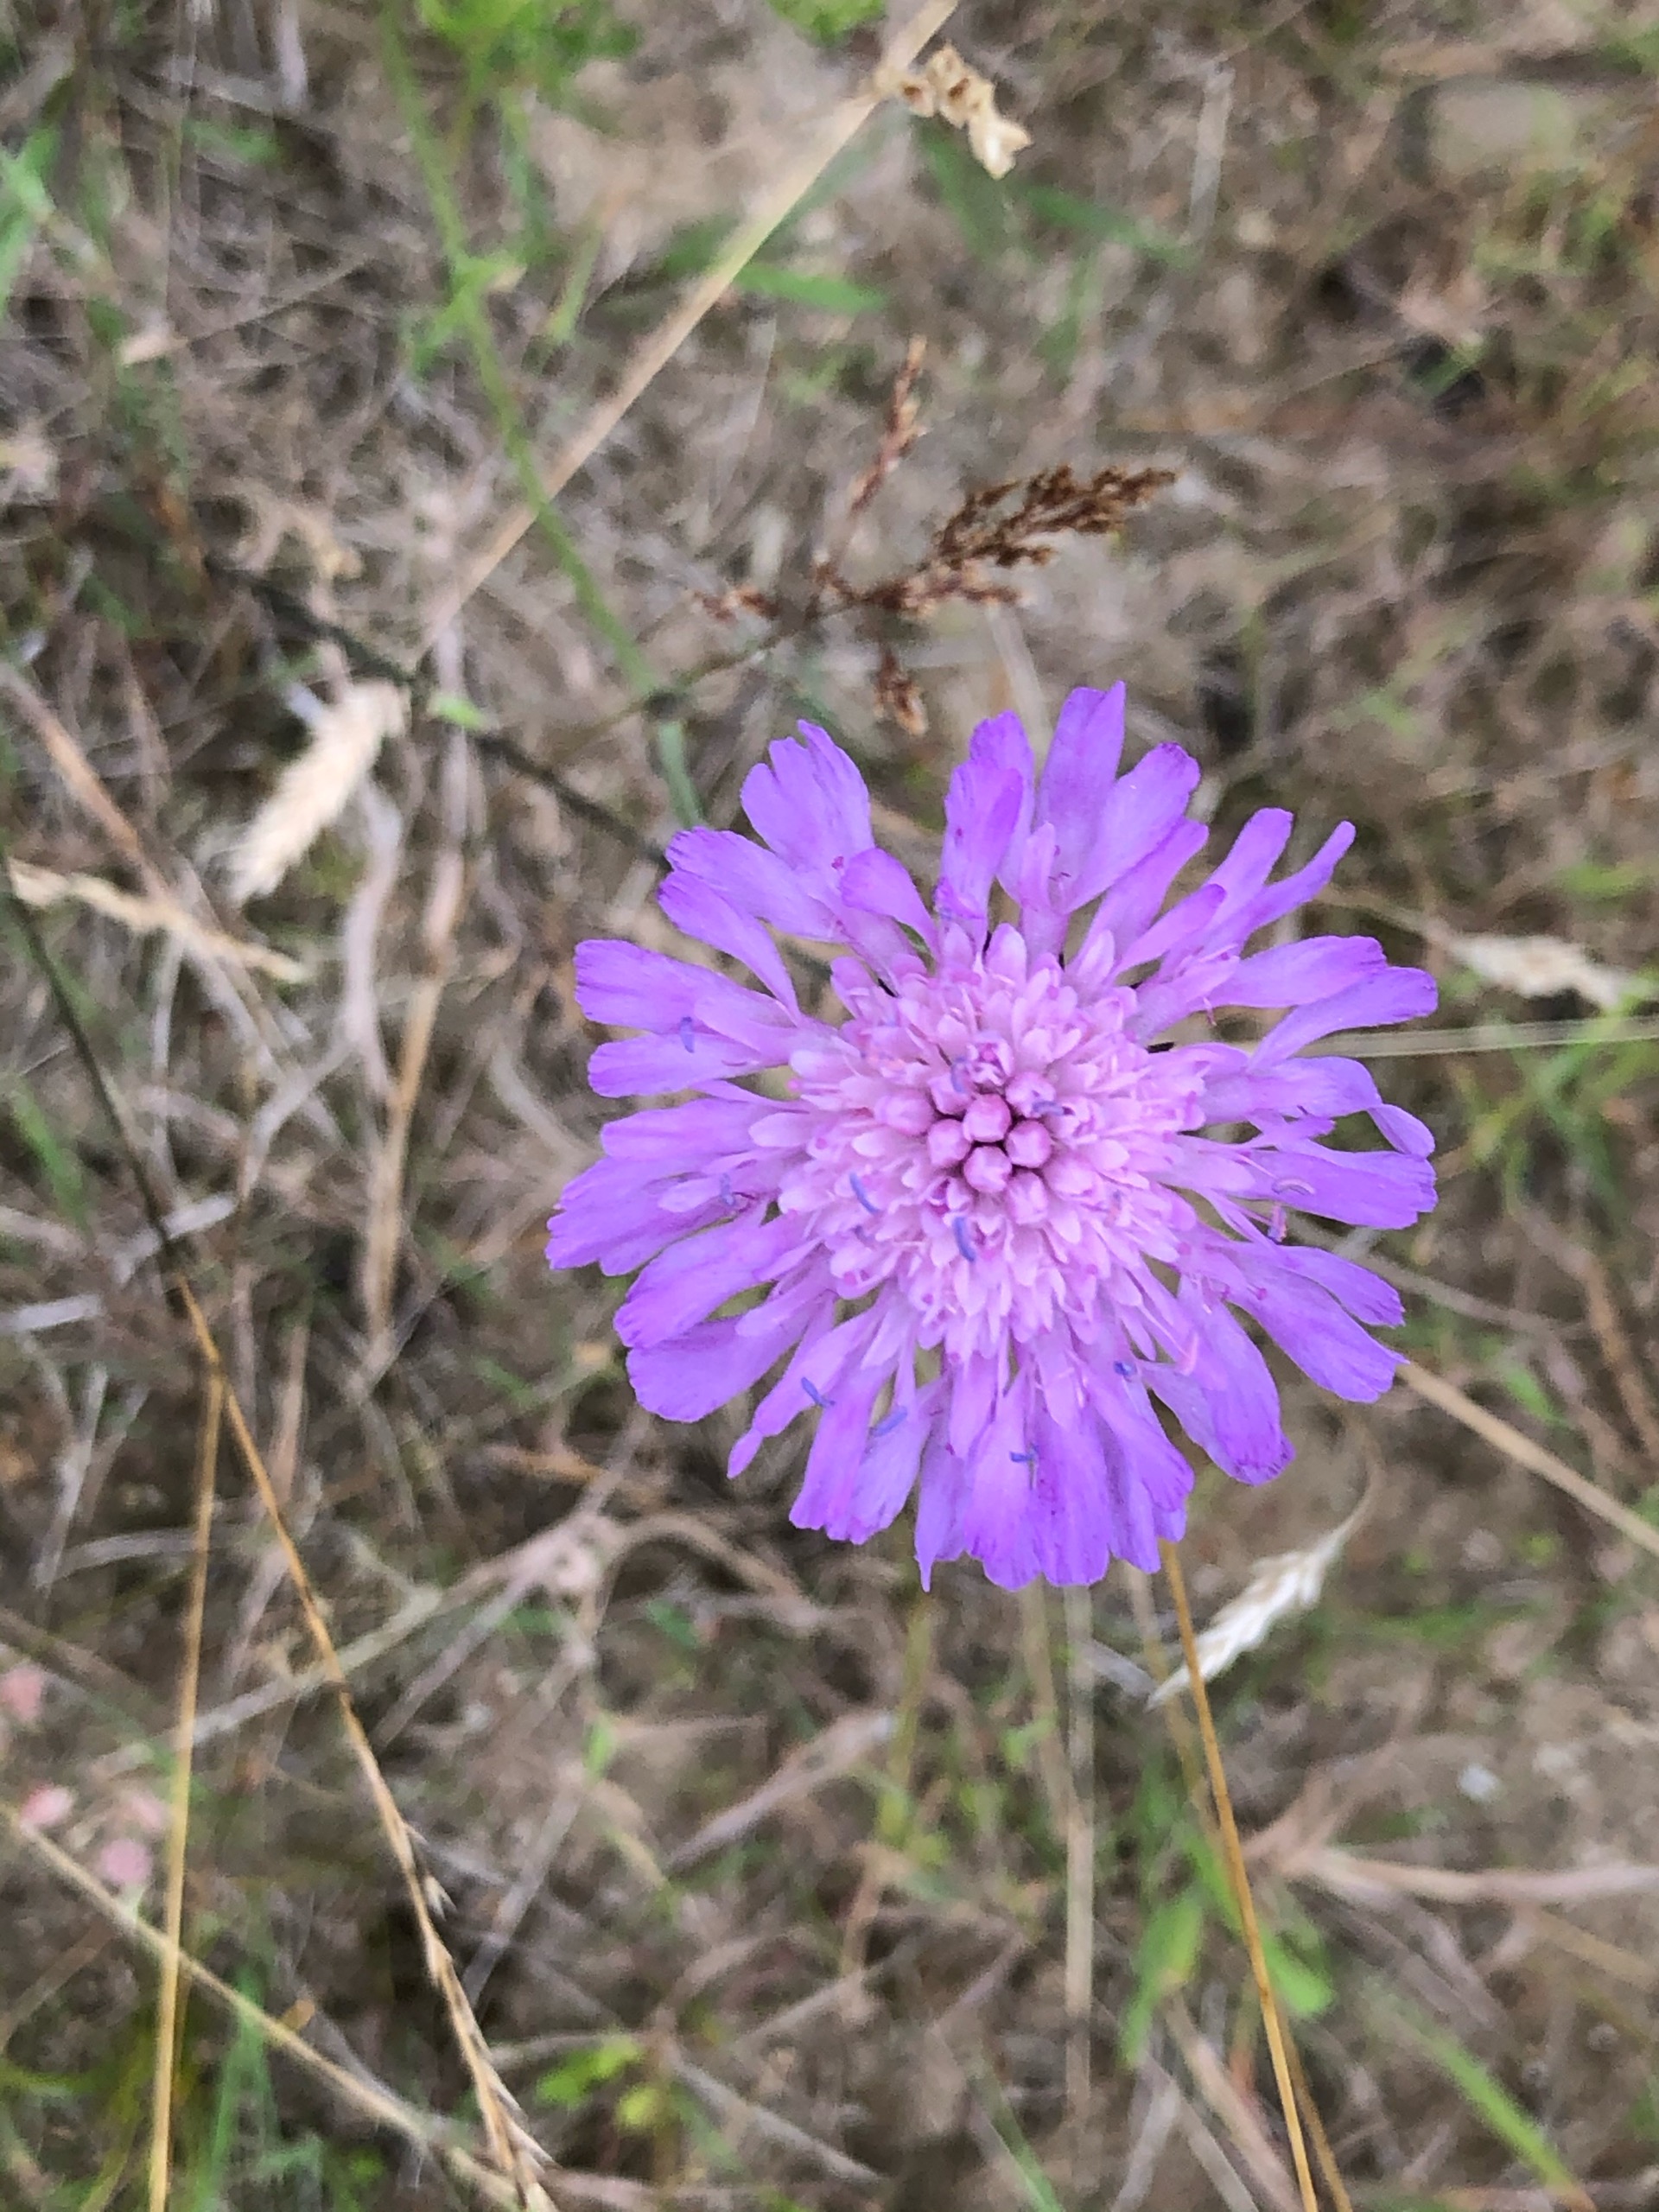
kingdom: Plantae
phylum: Tracheophyta
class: Magnoliopsida
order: Dipsacales
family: Caprifoliaceae
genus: Knautia
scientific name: Knautia arvensis
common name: Blåhat
